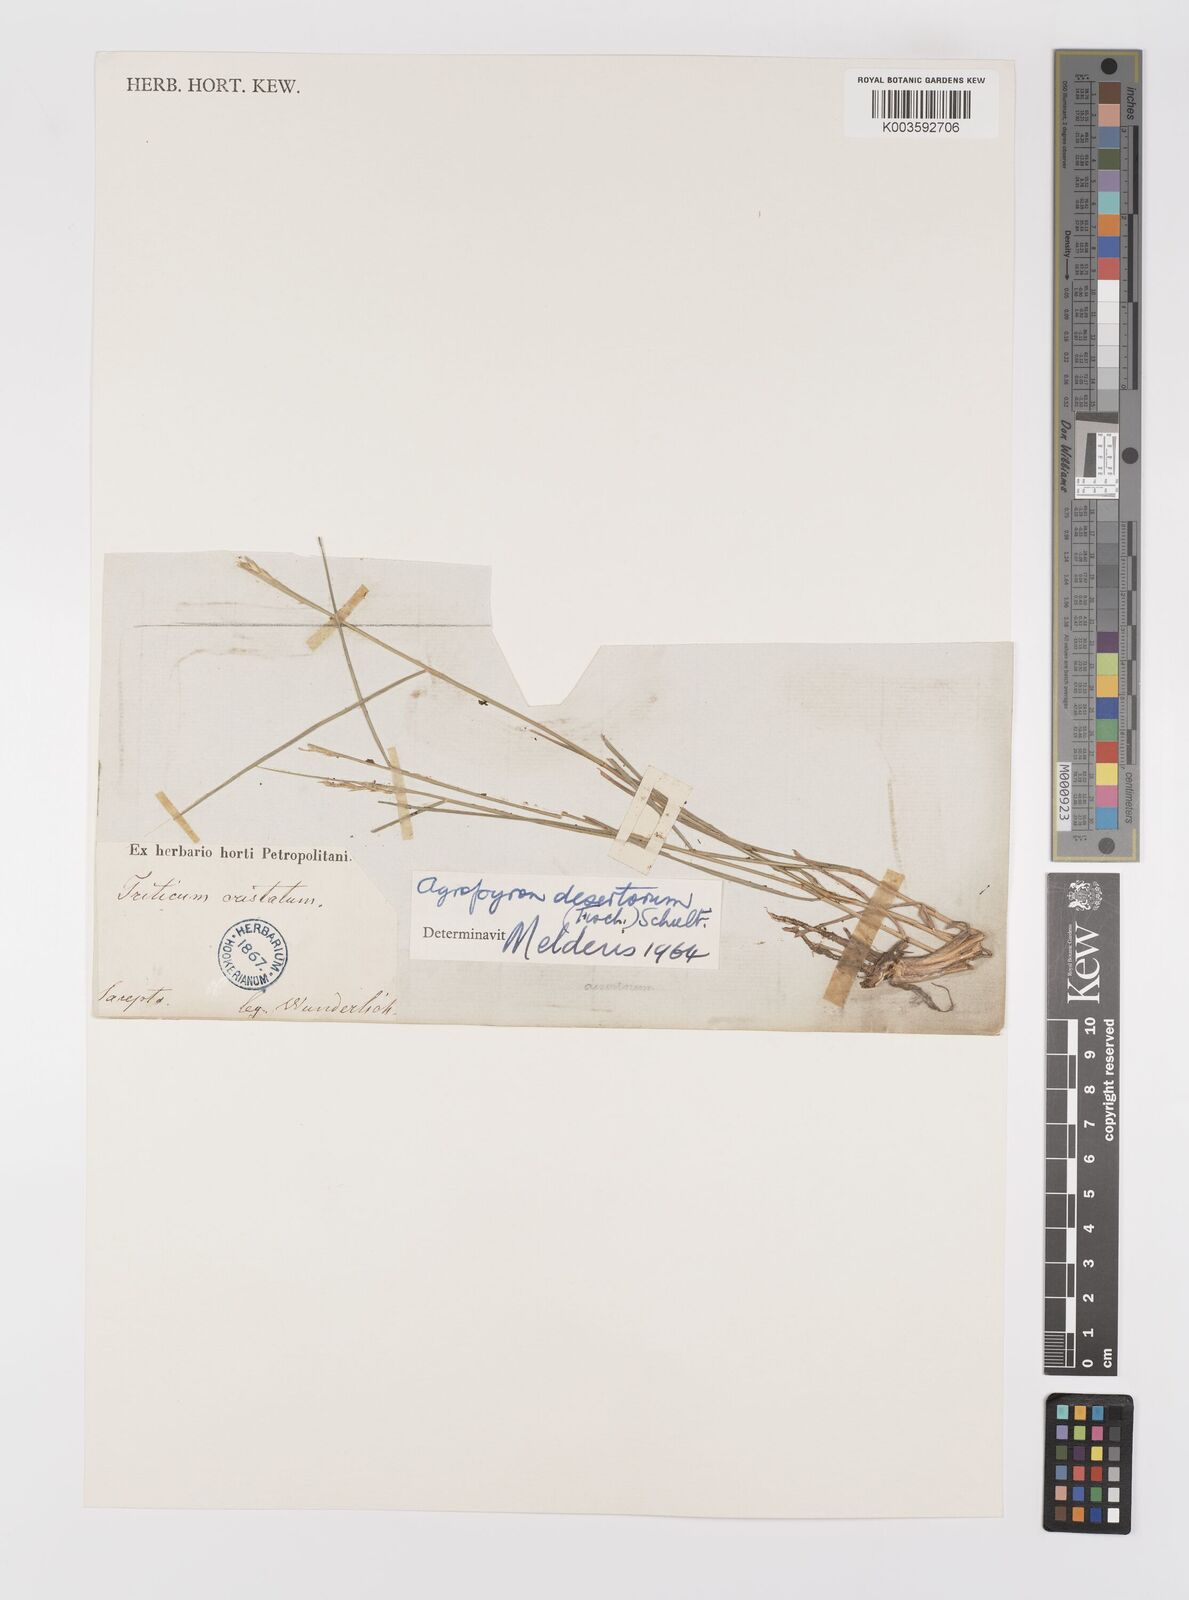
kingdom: Plantae
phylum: Tracheophyta
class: Liliopsida
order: Poales
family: Poaceae
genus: Agropyron
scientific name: Agropyron desertorum
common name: Desert wheatgrass
